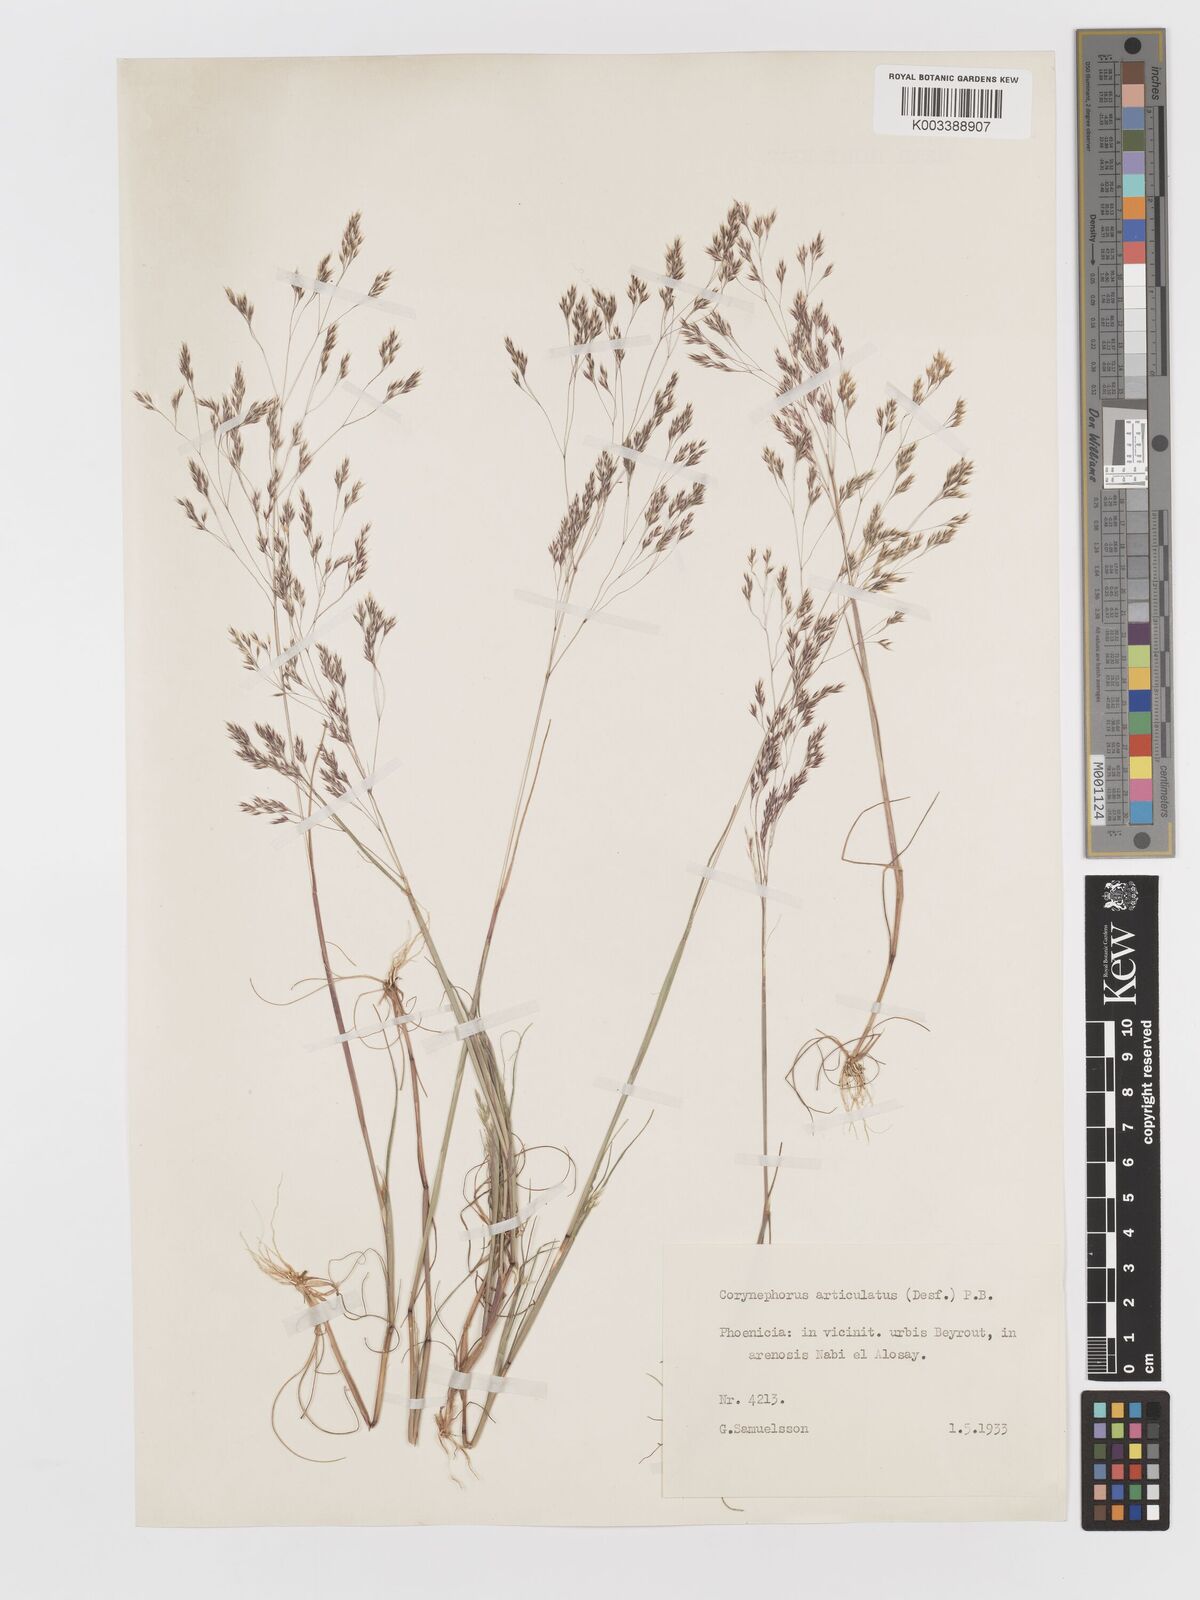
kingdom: Plantae
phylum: Tracheophyta
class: Liliopsida
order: Poales
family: Poaceae
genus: Corynephorus
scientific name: Corynephorus divaricatus
